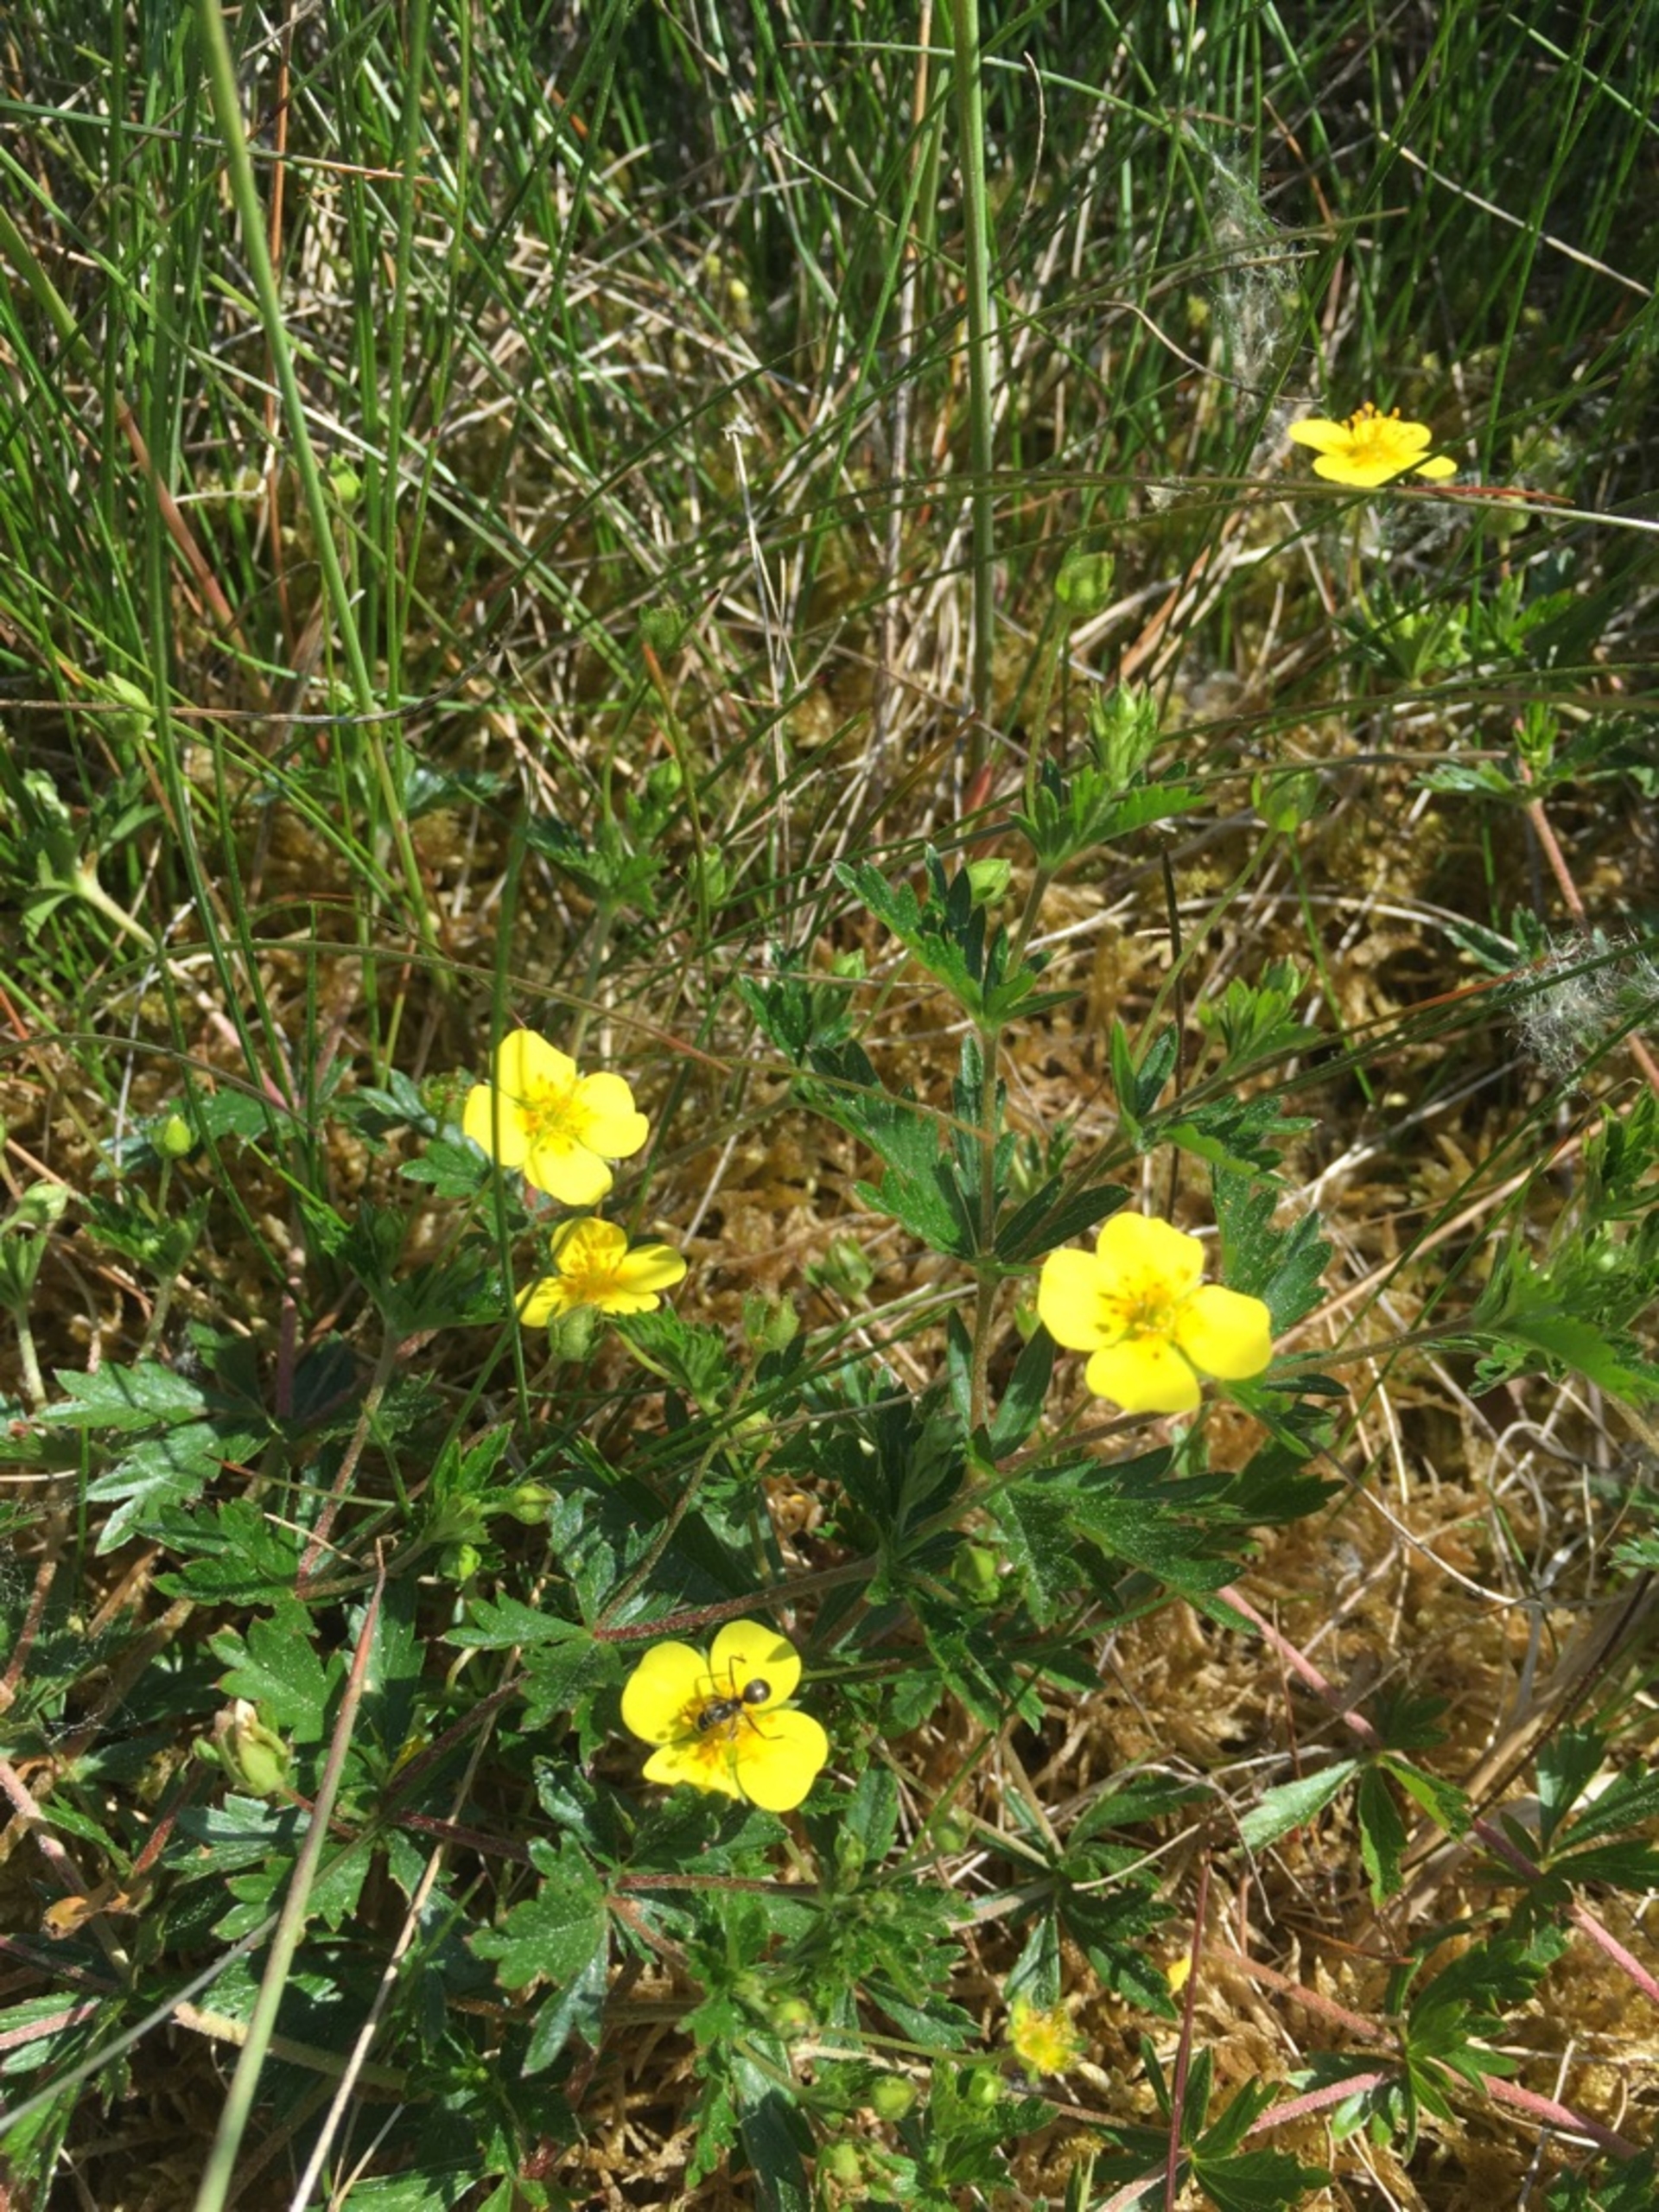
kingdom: Plantae
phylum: Tracheophyta
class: Magnoliopsida
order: Rosales
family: Rosaceae
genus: Potentilla
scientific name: Potentilla erecta
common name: Tormentil
